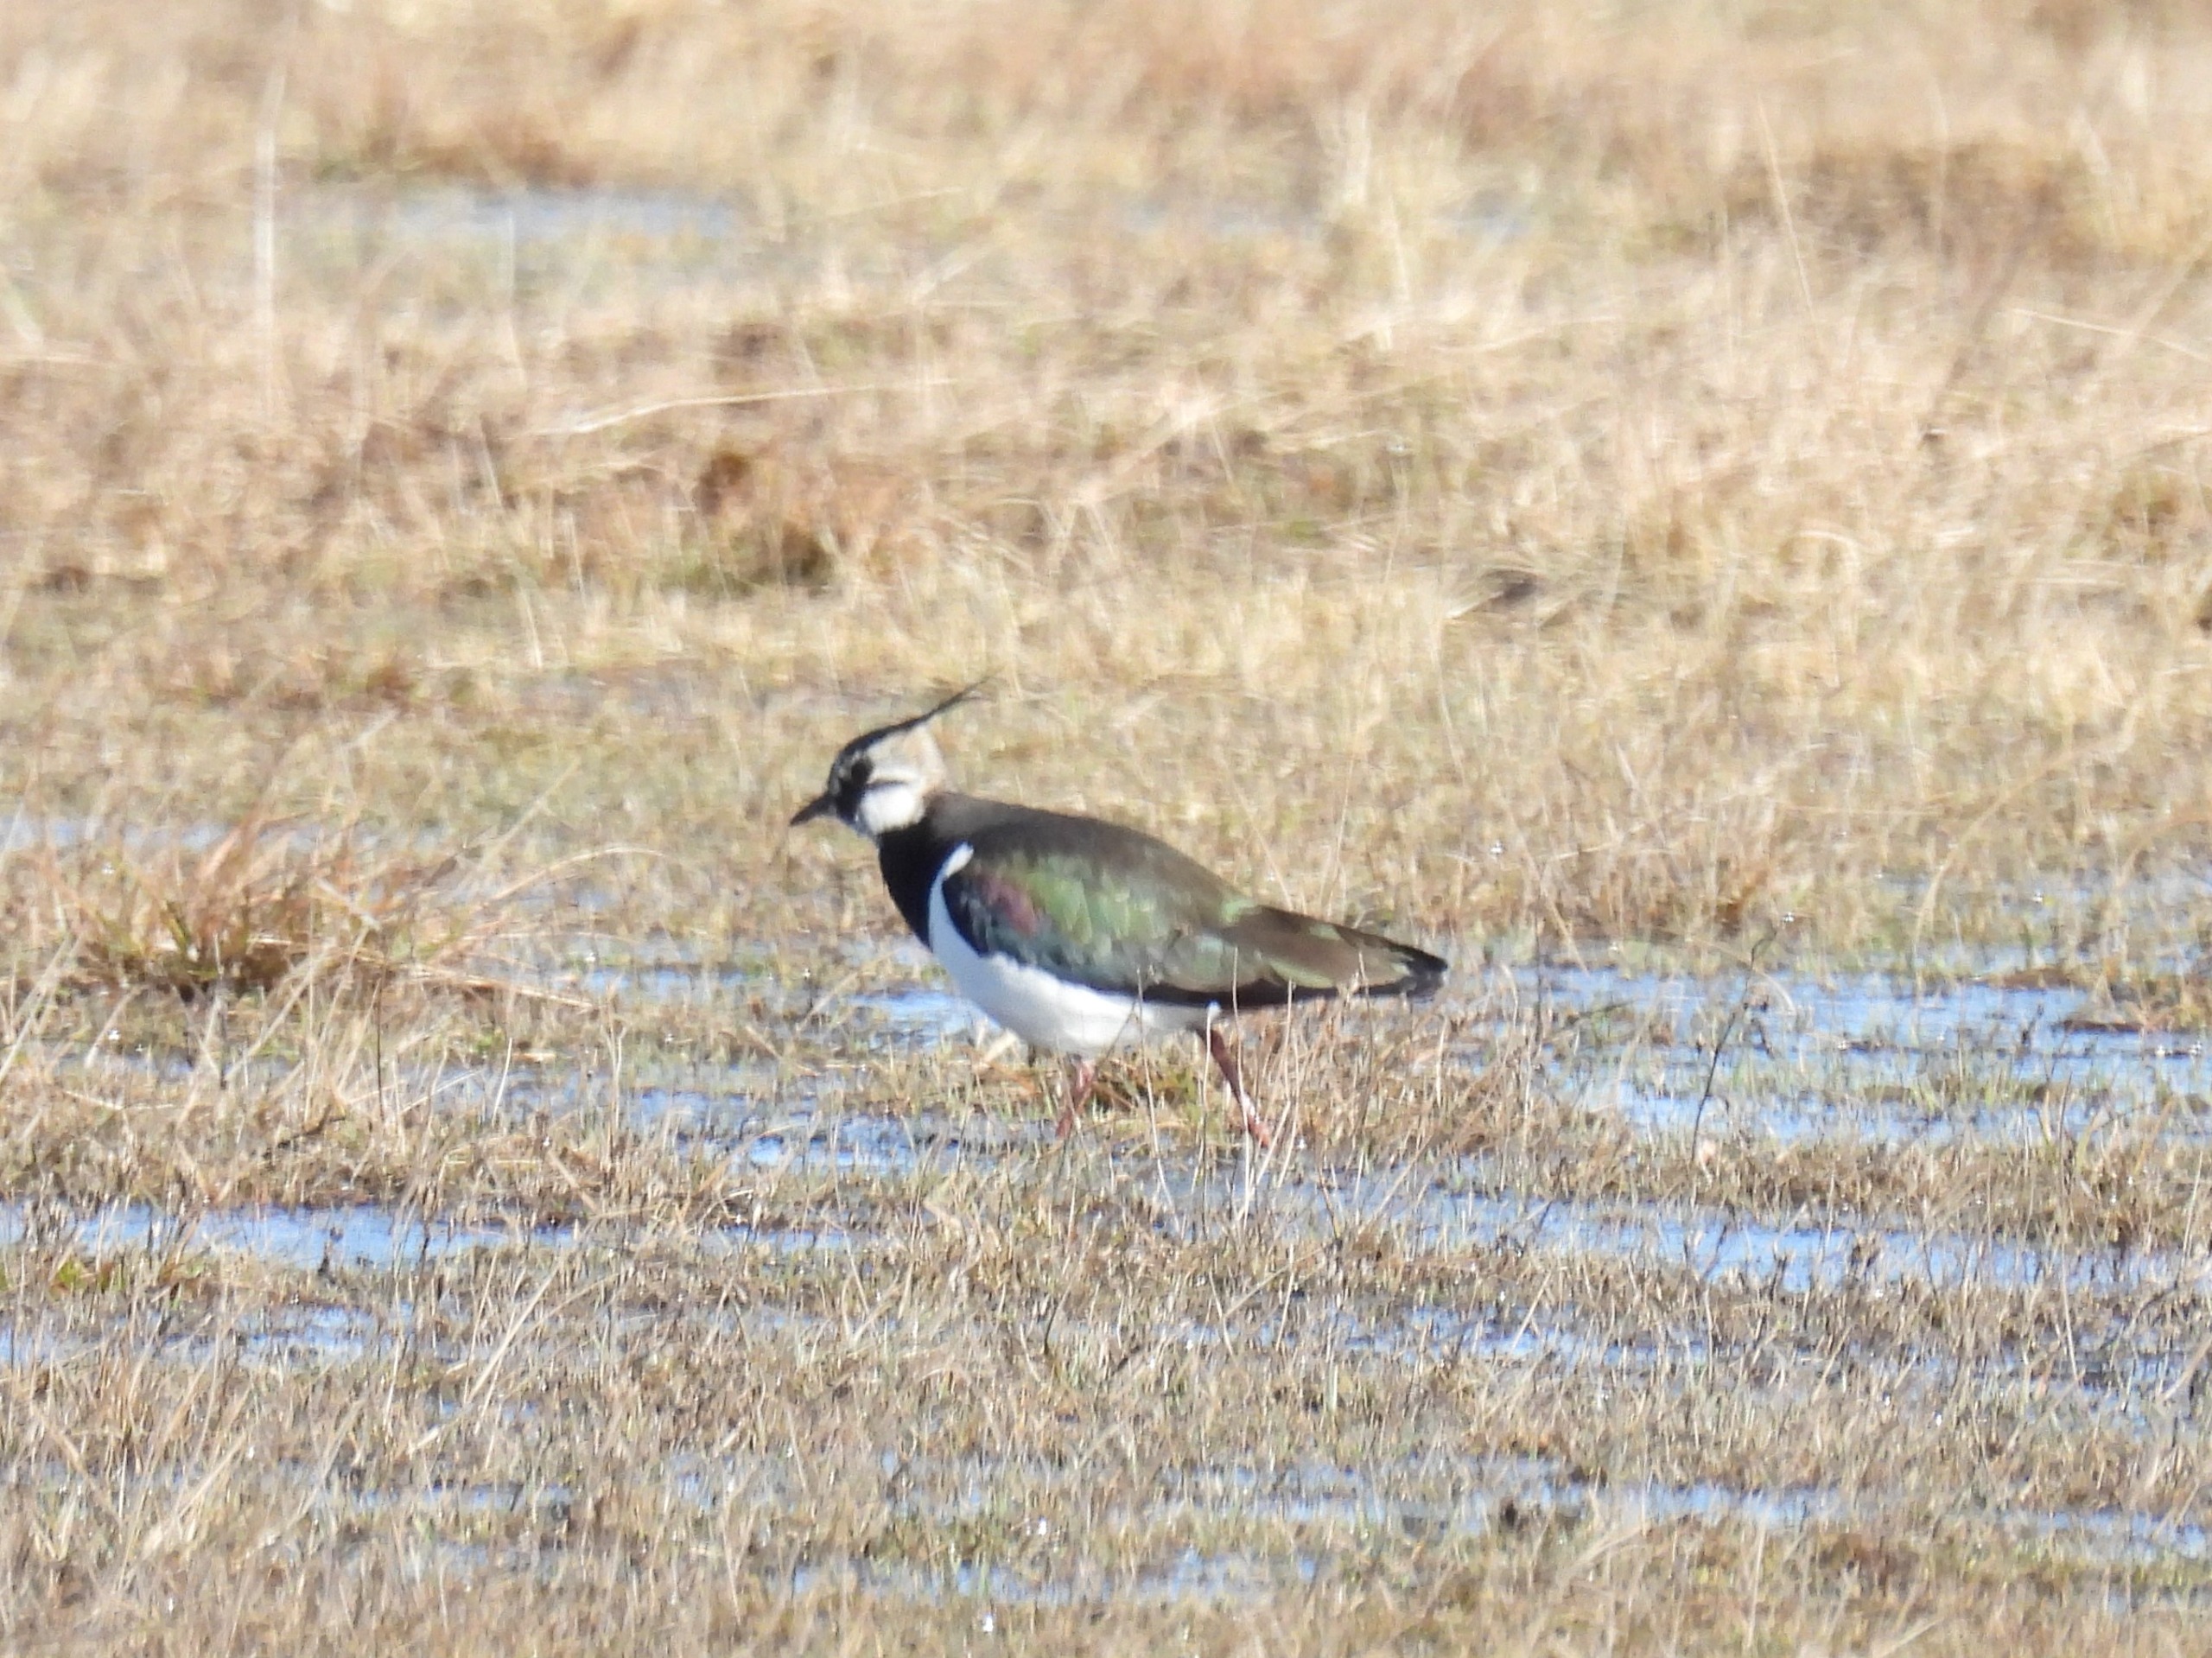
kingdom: Animalia
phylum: Chordata
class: Aves
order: Charadriiformes
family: Charadriidae
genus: Vanellus
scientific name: Vanellus vanellus
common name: Vibe
